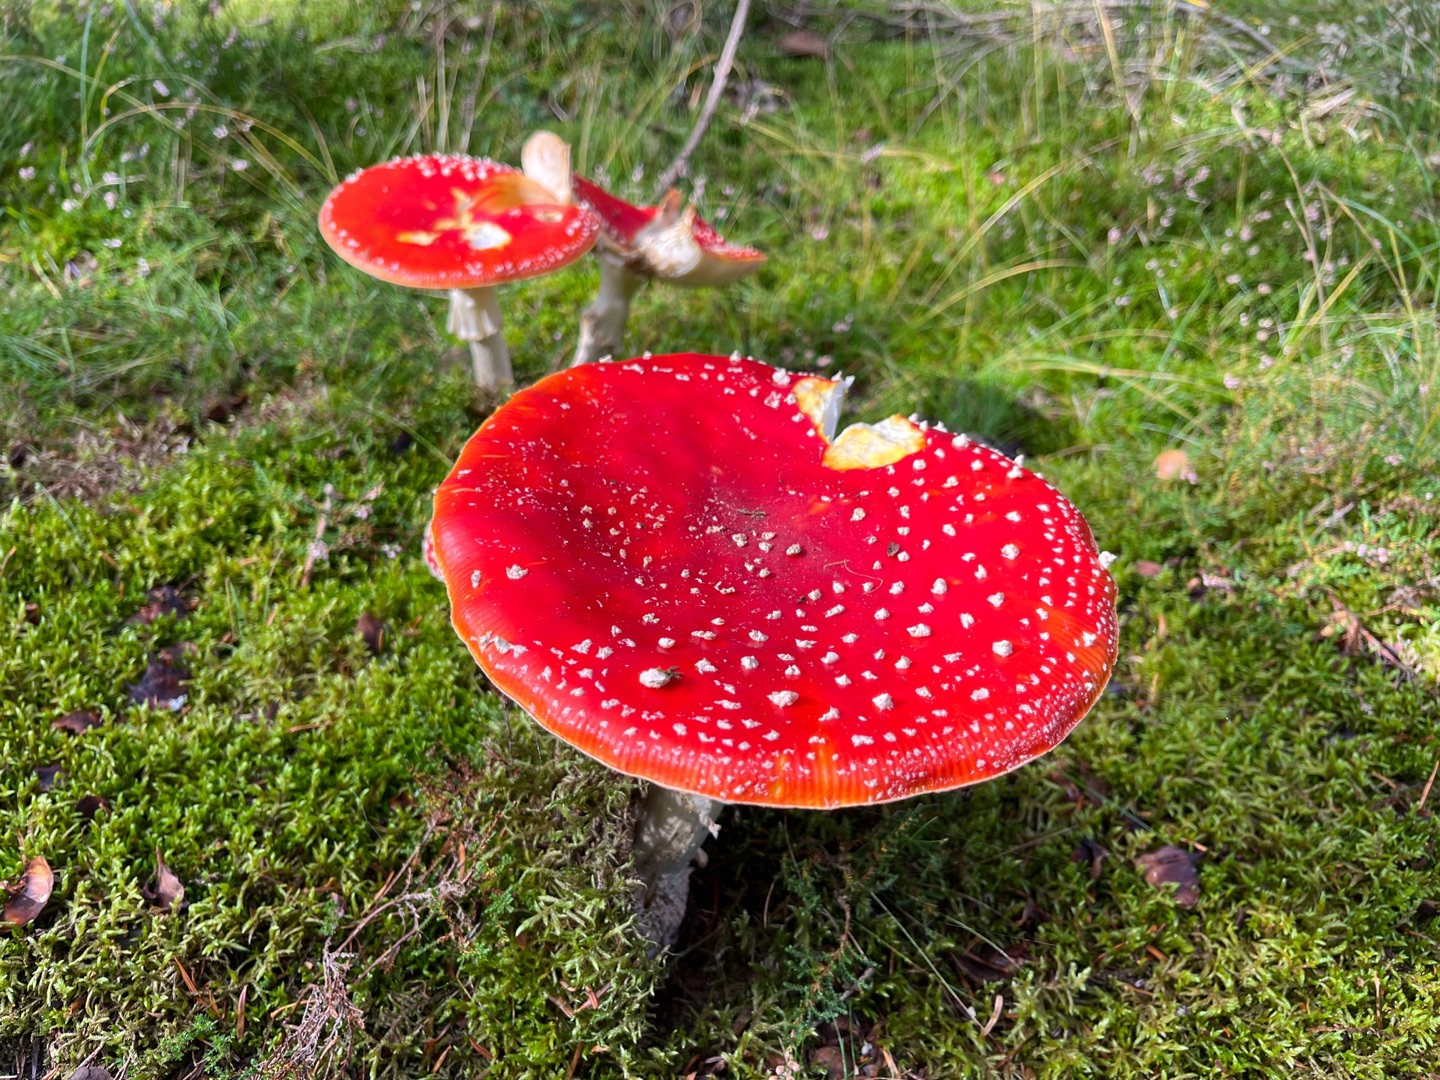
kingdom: Fungi
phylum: Basidiomycota
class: Agaricomycetes
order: Agaricales
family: Amanitaceae
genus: Amanita
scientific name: Amanita muscaria
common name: Rød fluesvamp
